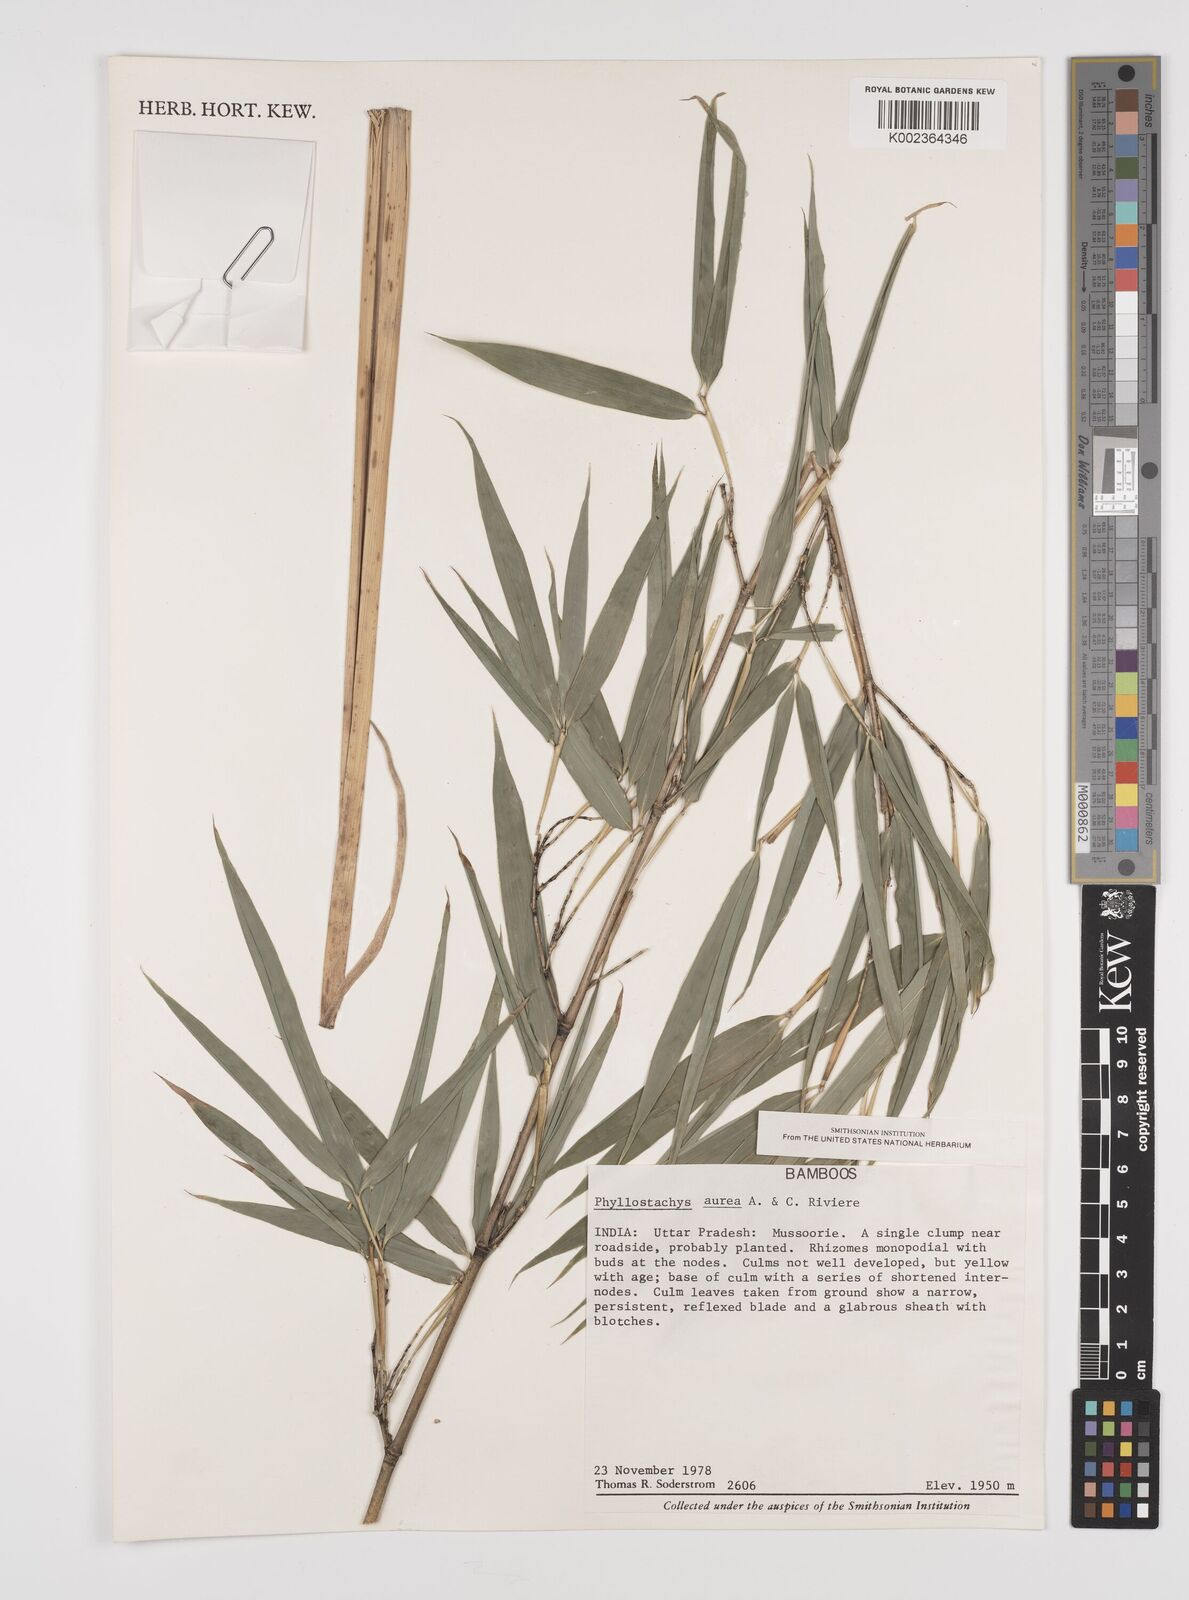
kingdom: Plantae
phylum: Tracheophyta
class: Liliopsida
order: Poales
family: Poaceae
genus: Phyllostachys
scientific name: Phyllostachys aurea
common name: Golden bamboo
